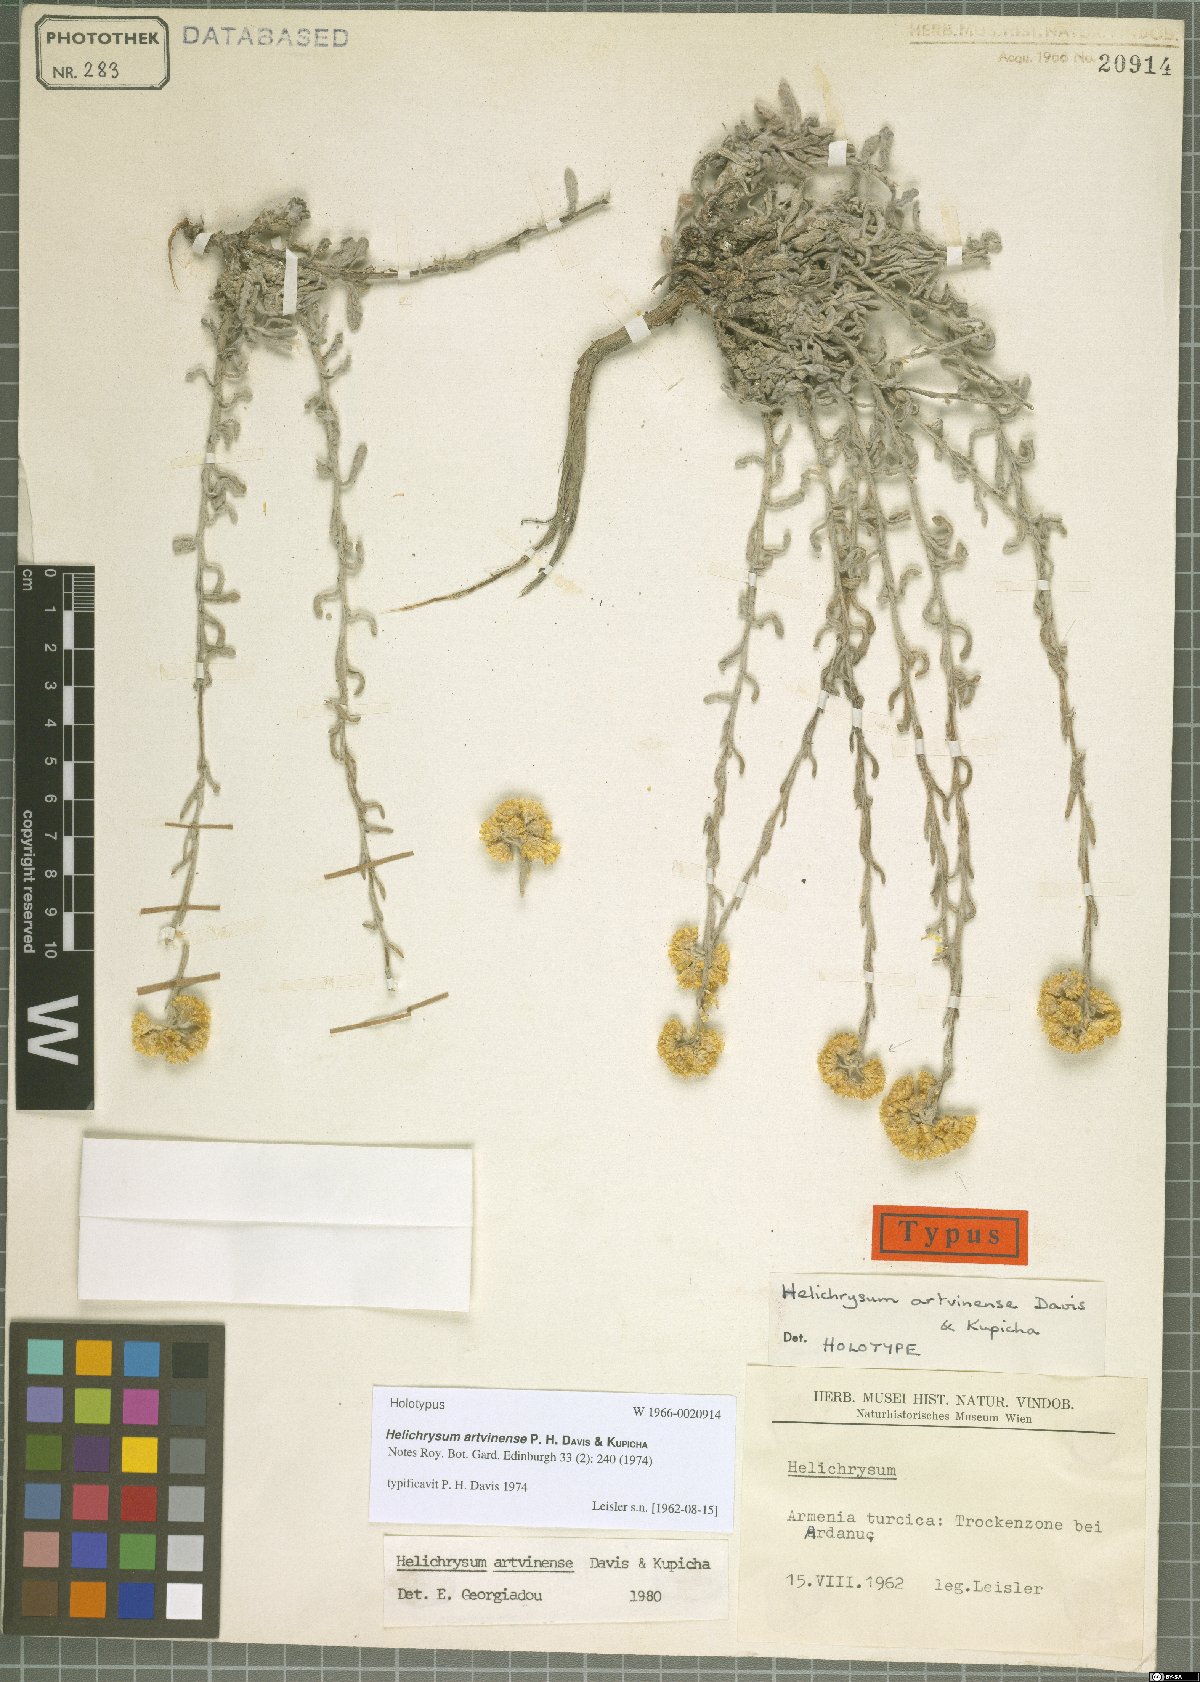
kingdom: Plantae
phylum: Tracheophyta
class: Magnoliopsida
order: Asterales
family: Asteraceae
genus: Helichrysum
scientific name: Helichrysum artvinense
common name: Artvinian everlasting
